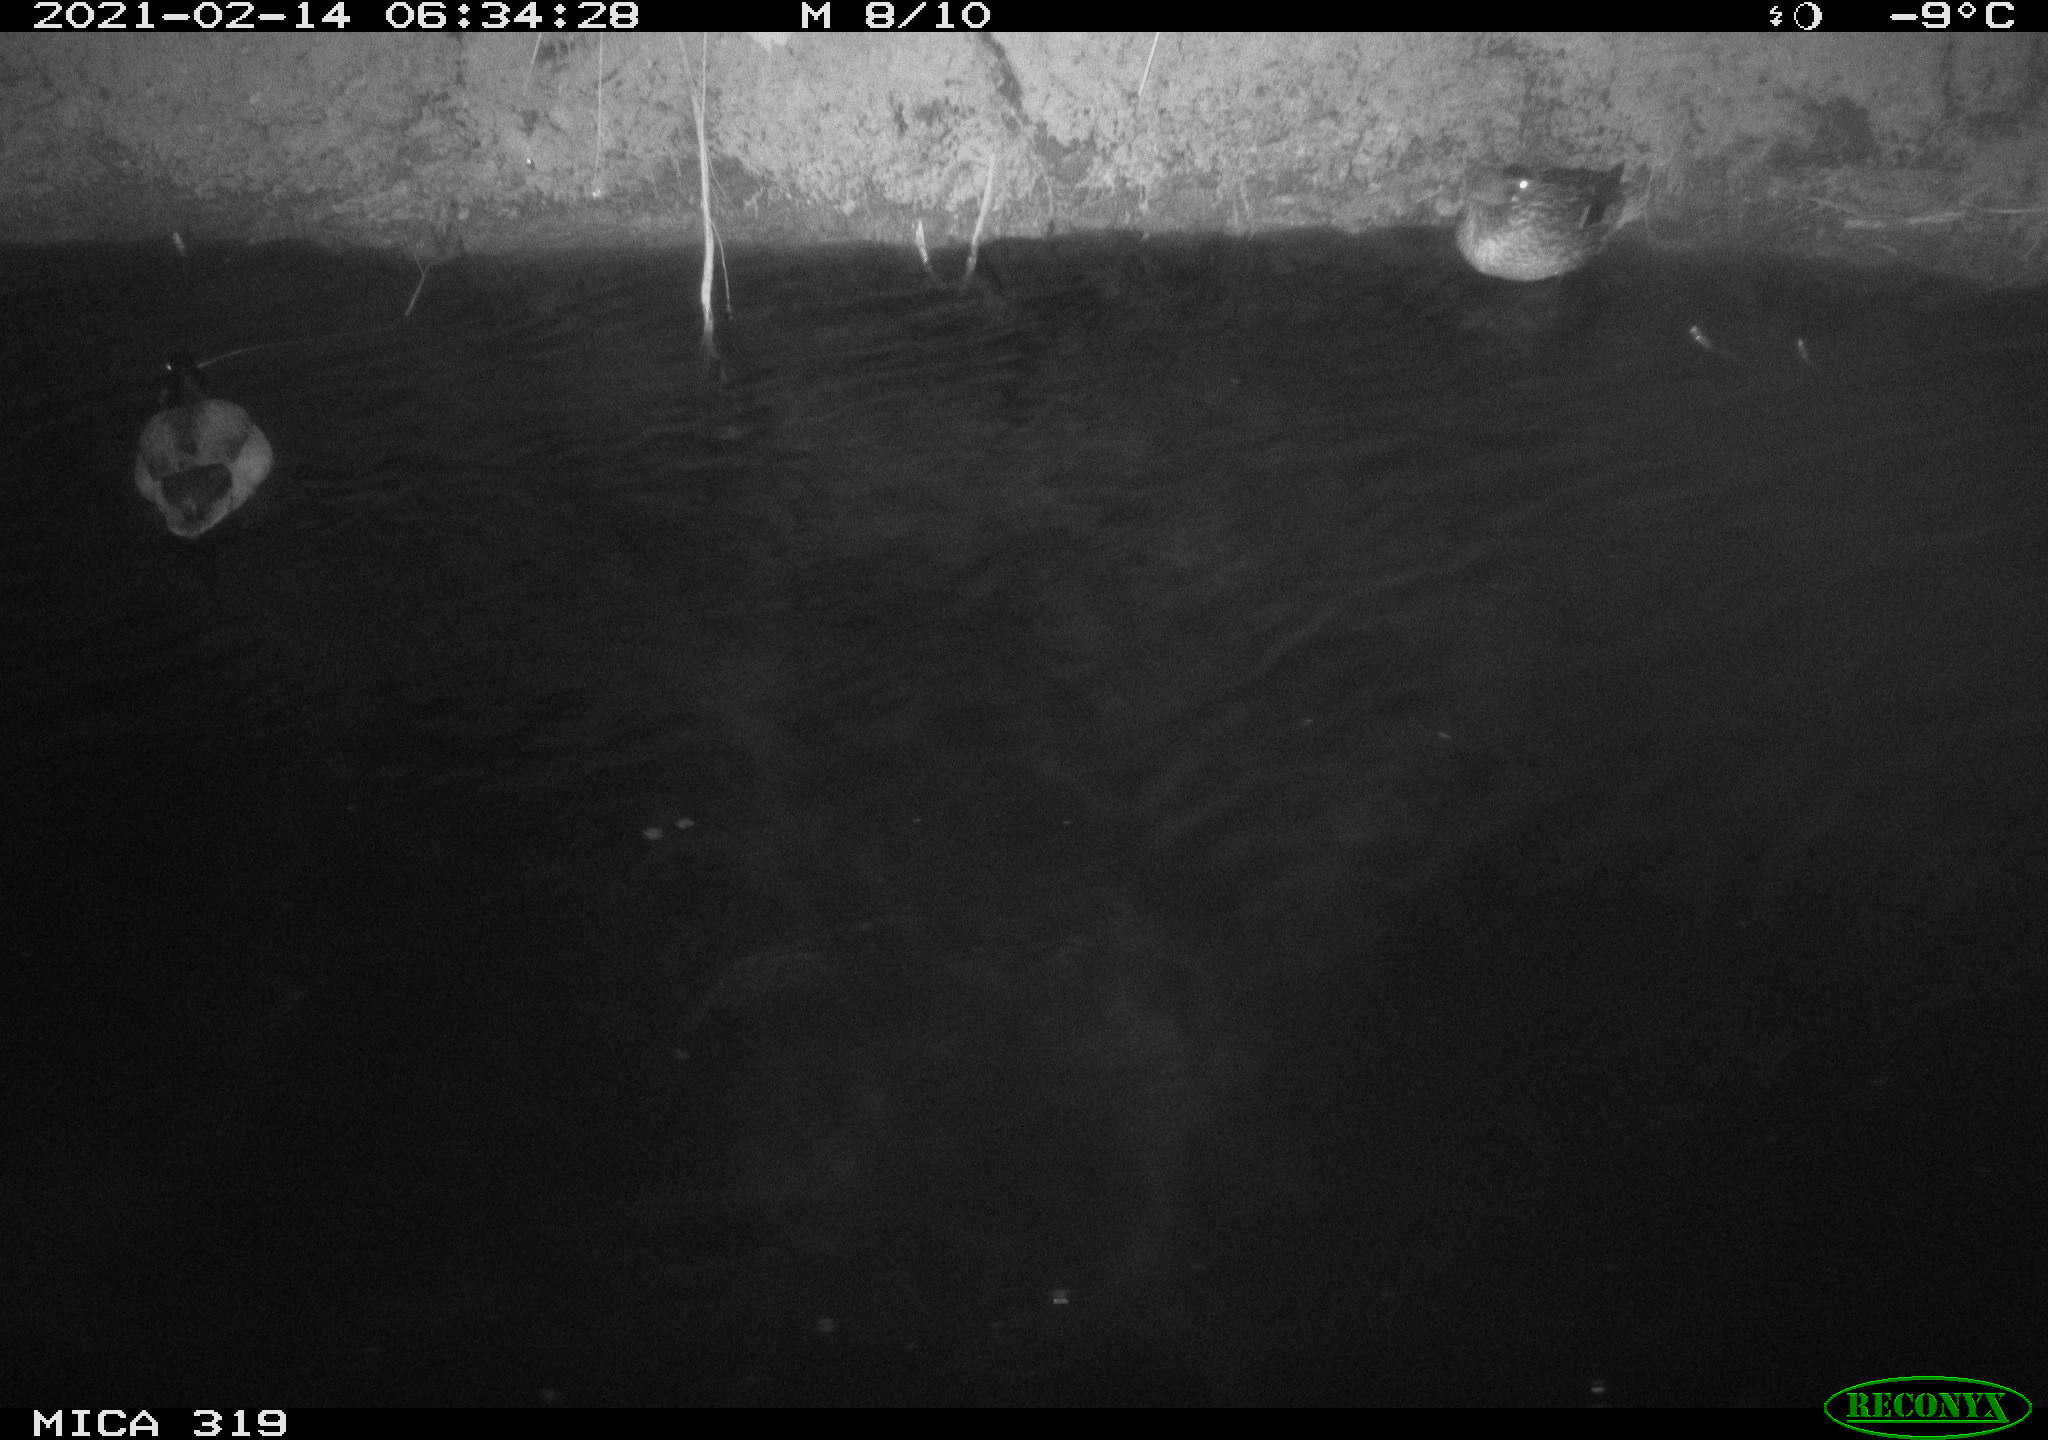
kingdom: Animalia
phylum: Chordata
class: Aves
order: Anseriformes
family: Anatidae
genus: Anas
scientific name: Anas platyrhynchos
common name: Mallard
